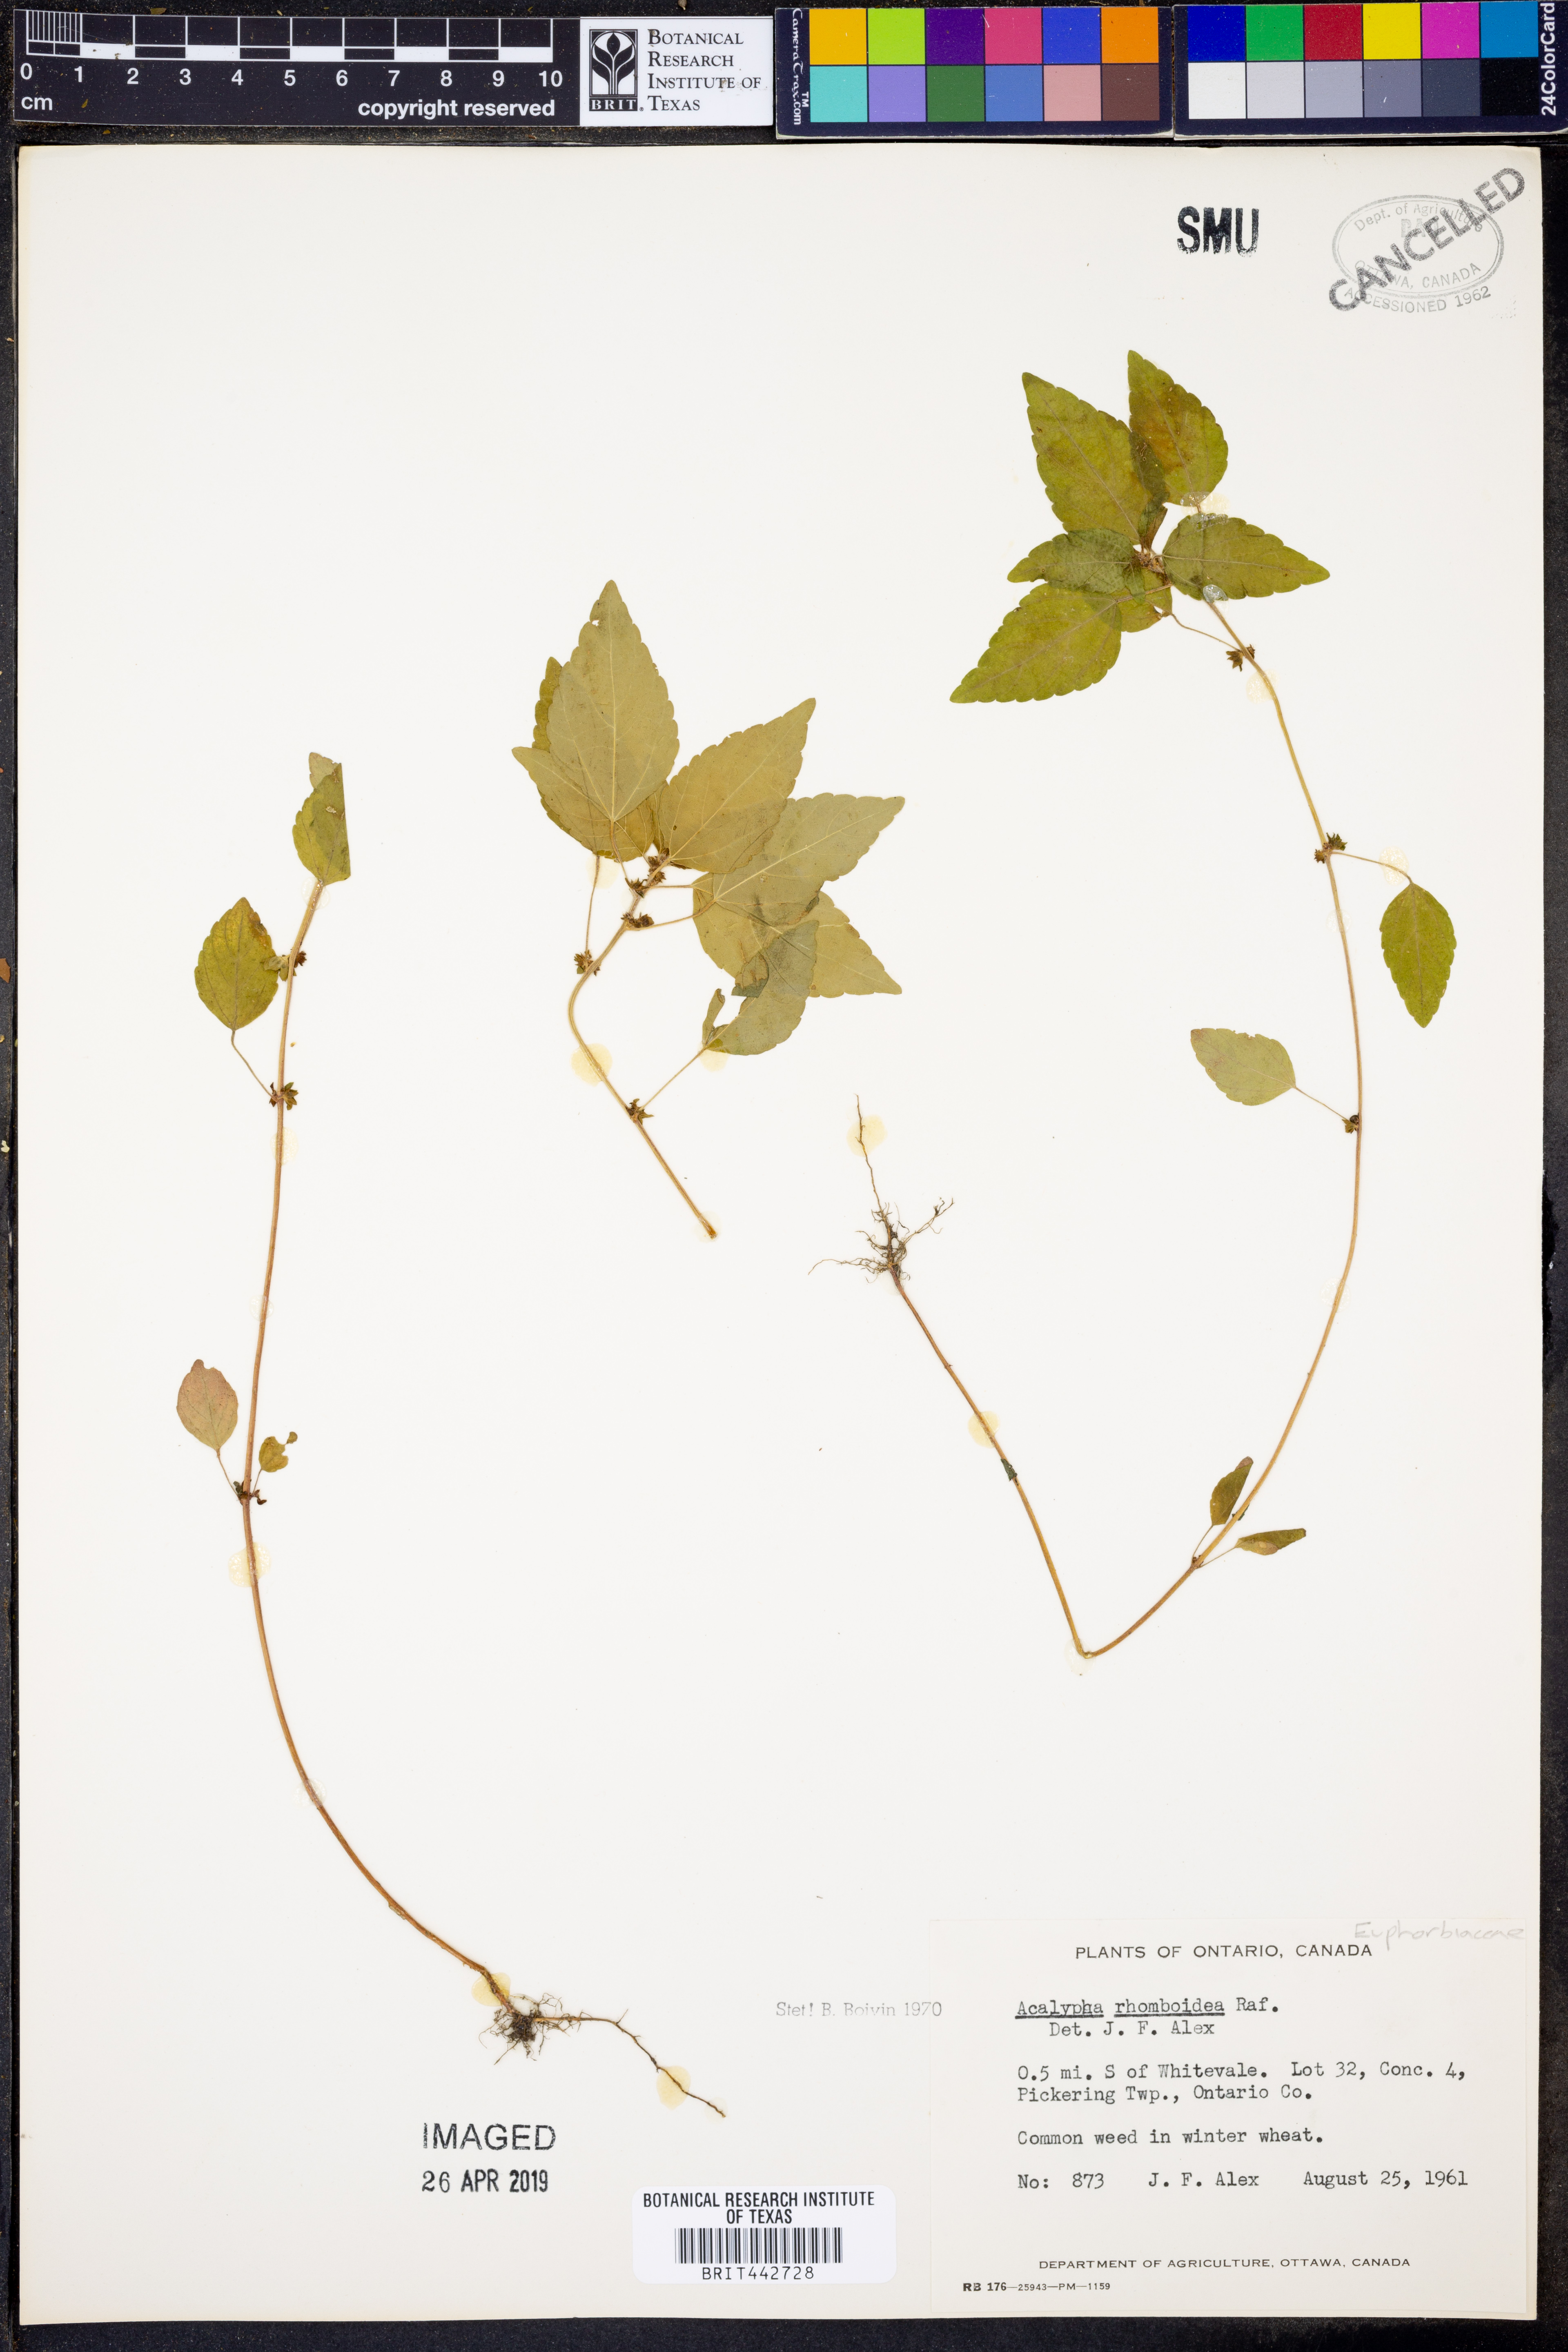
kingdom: Plantae
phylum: Tracheophyta
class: Magnoliopsida
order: Malpighiales
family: Euphorbiaceae
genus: Acalypha
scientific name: Acalypha rhomboidea
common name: Rhombic copperleaf
